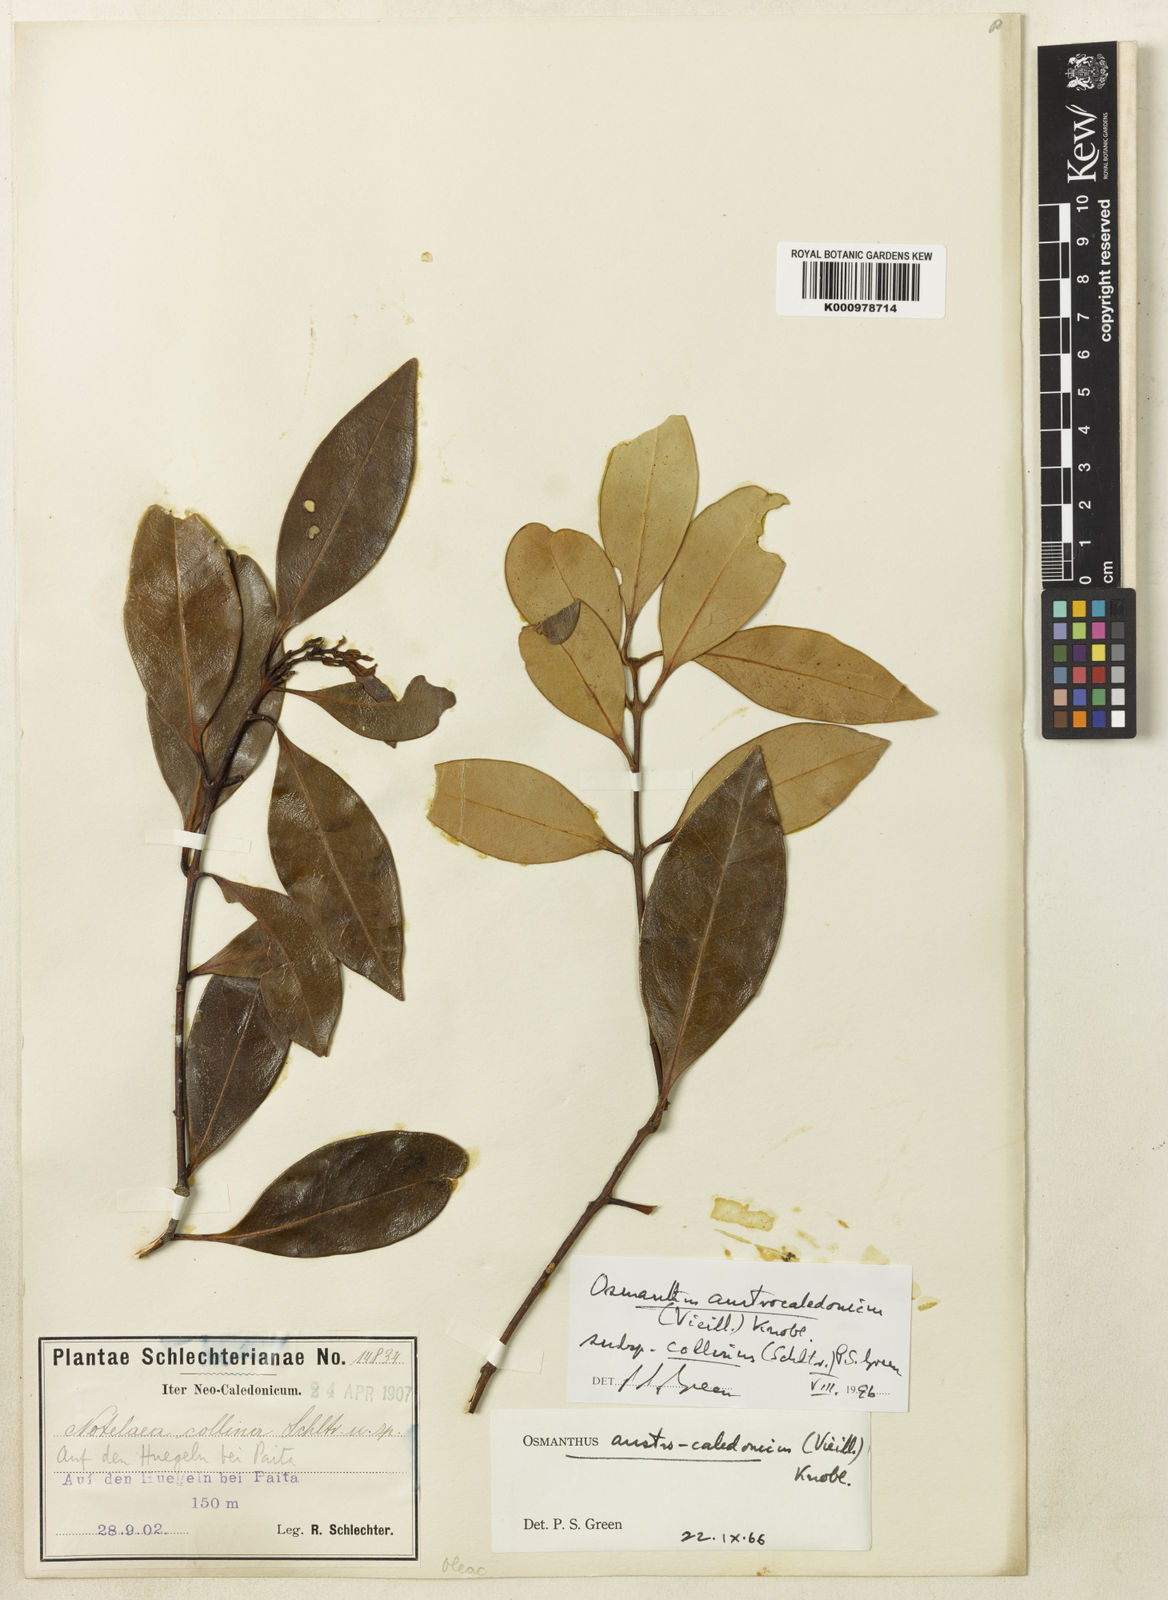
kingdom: Plantae
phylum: Tracheophyta
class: Magnoliopsida
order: Lamiales
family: Oleaceae
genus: Osmanthus
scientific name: Osmanthus austrocaledonicus
